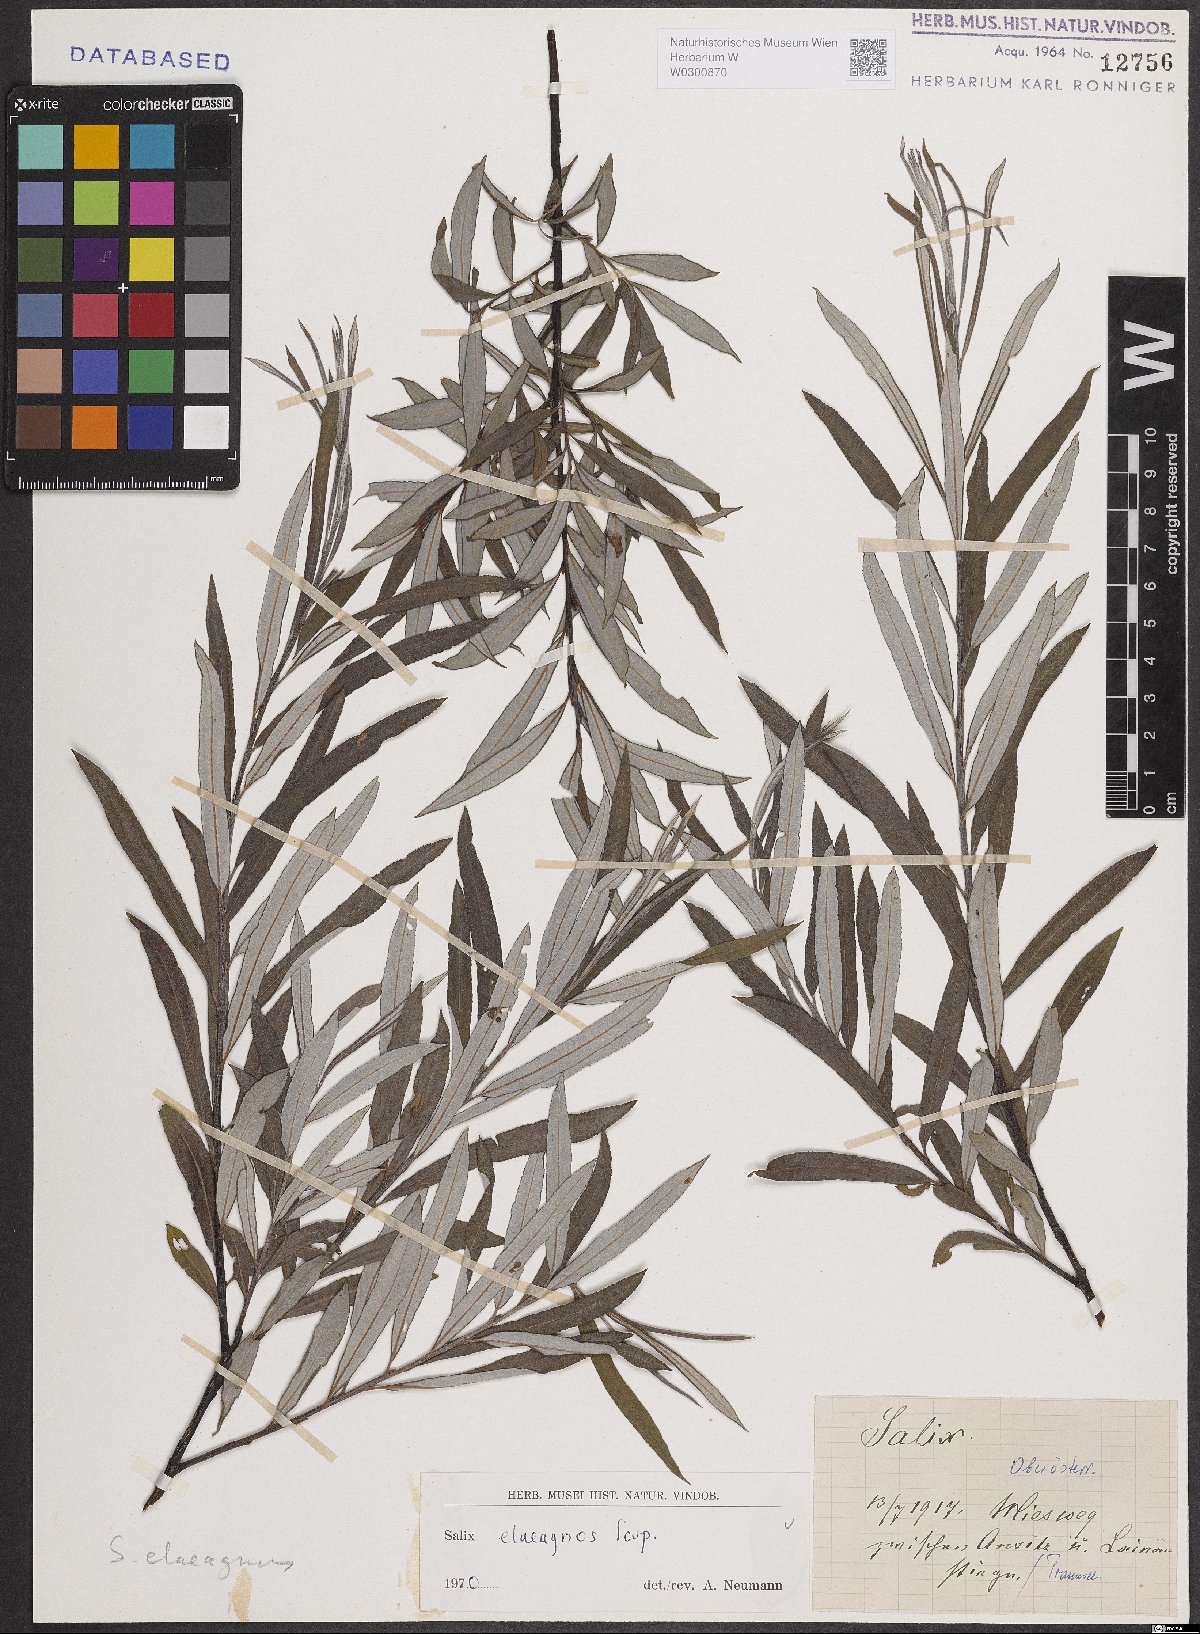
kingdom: Plantae
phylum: Tracheophyta
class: Magnoliopsida
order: Malpighiales
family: Salicaceae
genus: Salix
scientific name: Salix eleagnos
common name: Elaeagnus willow
